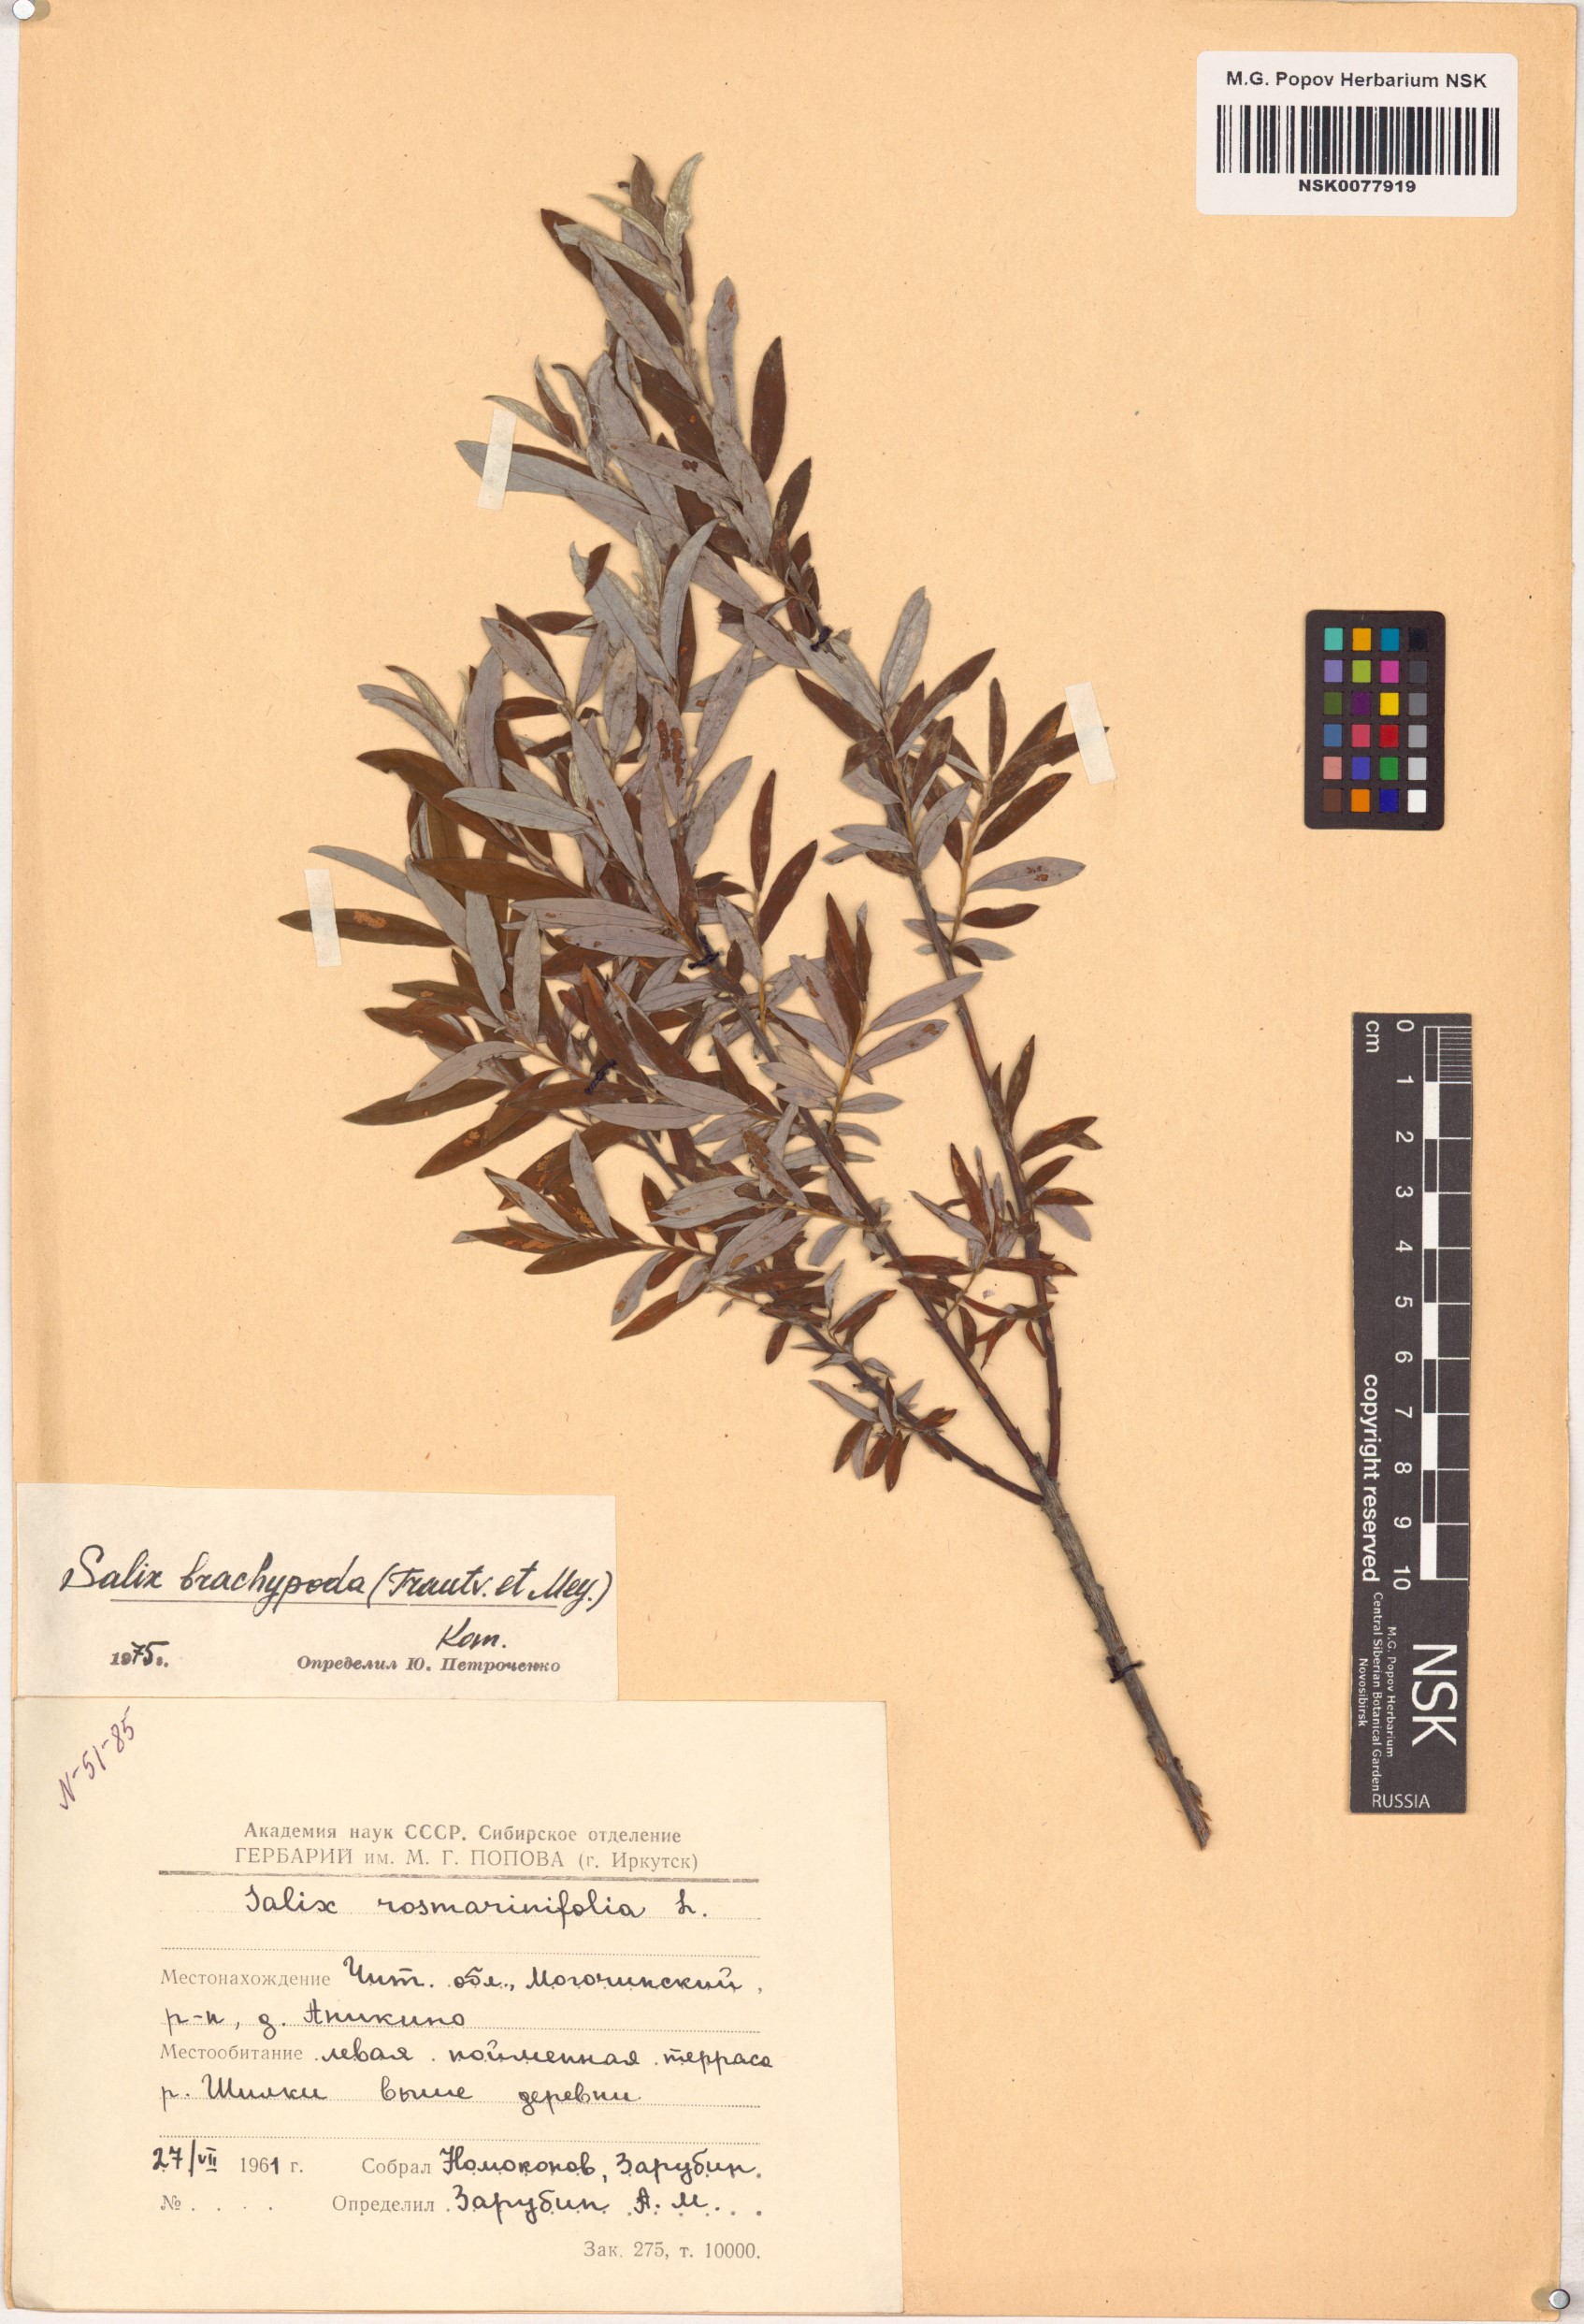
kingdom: Plantae
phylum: Tracheophyta
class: Magnoliopsida
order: Malpighiales
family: Salicaceae
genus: Salix
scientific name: Salix brachypoda
